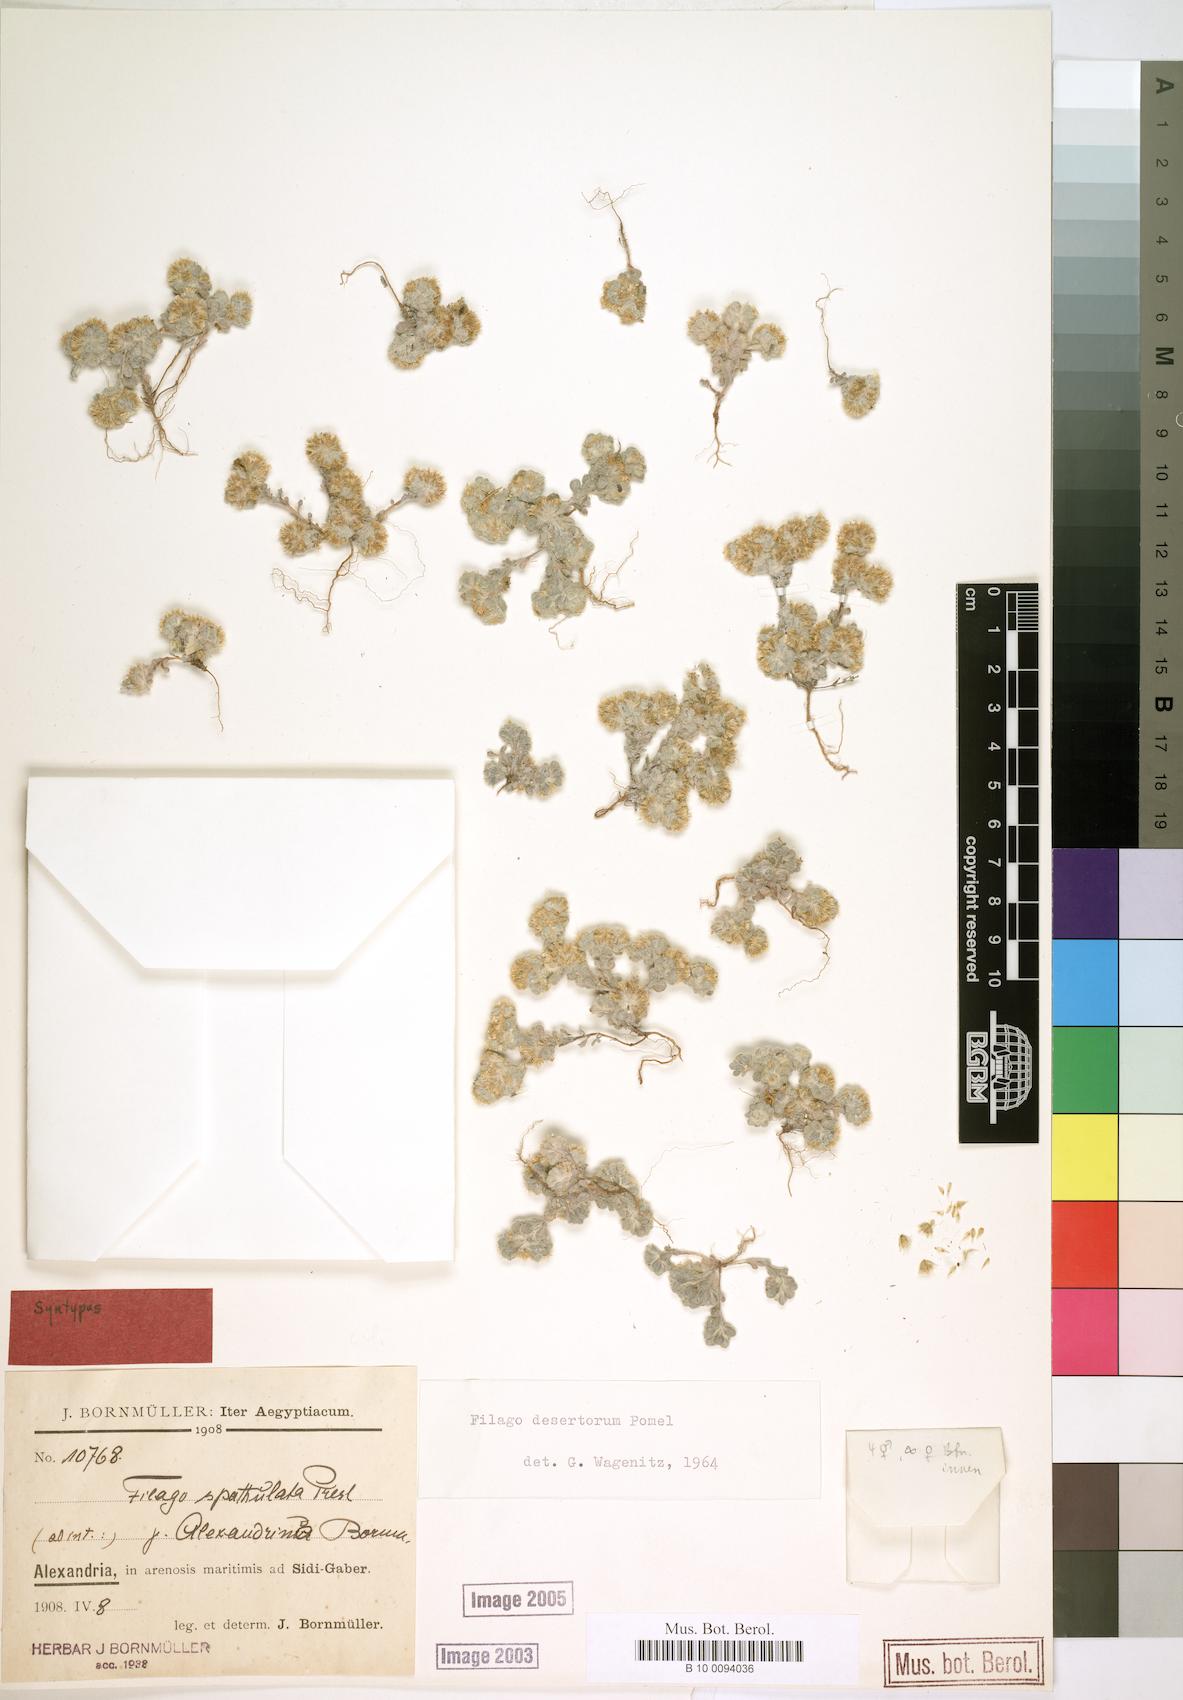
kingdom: Plantae
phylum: Tracheophyta
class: Magnoliopsida
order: Asterales
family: Asteraceae
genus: Filago
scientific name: Filago desertorum
